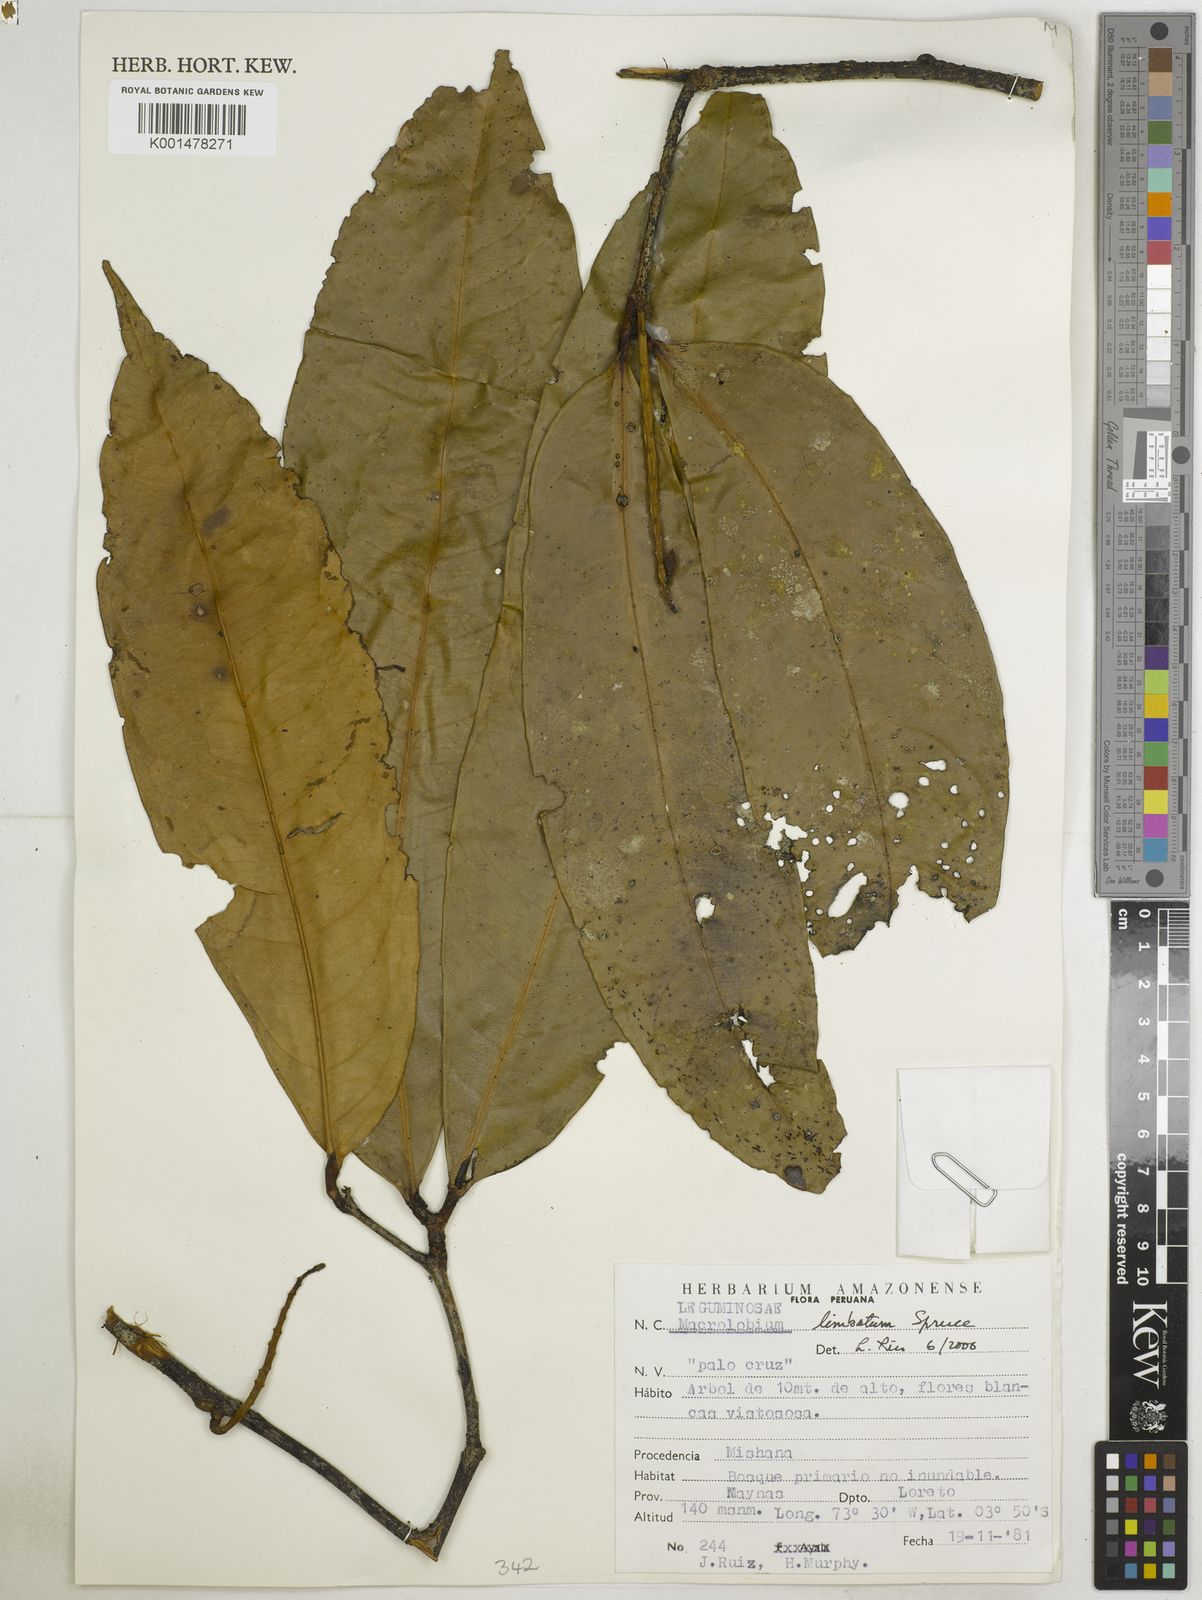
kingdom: Plantae
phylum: Tracheophyta
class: Magnoliopsida
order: Fabales
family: Fabaceae
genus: Macrolobium
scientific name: Macrolobium limbatum
